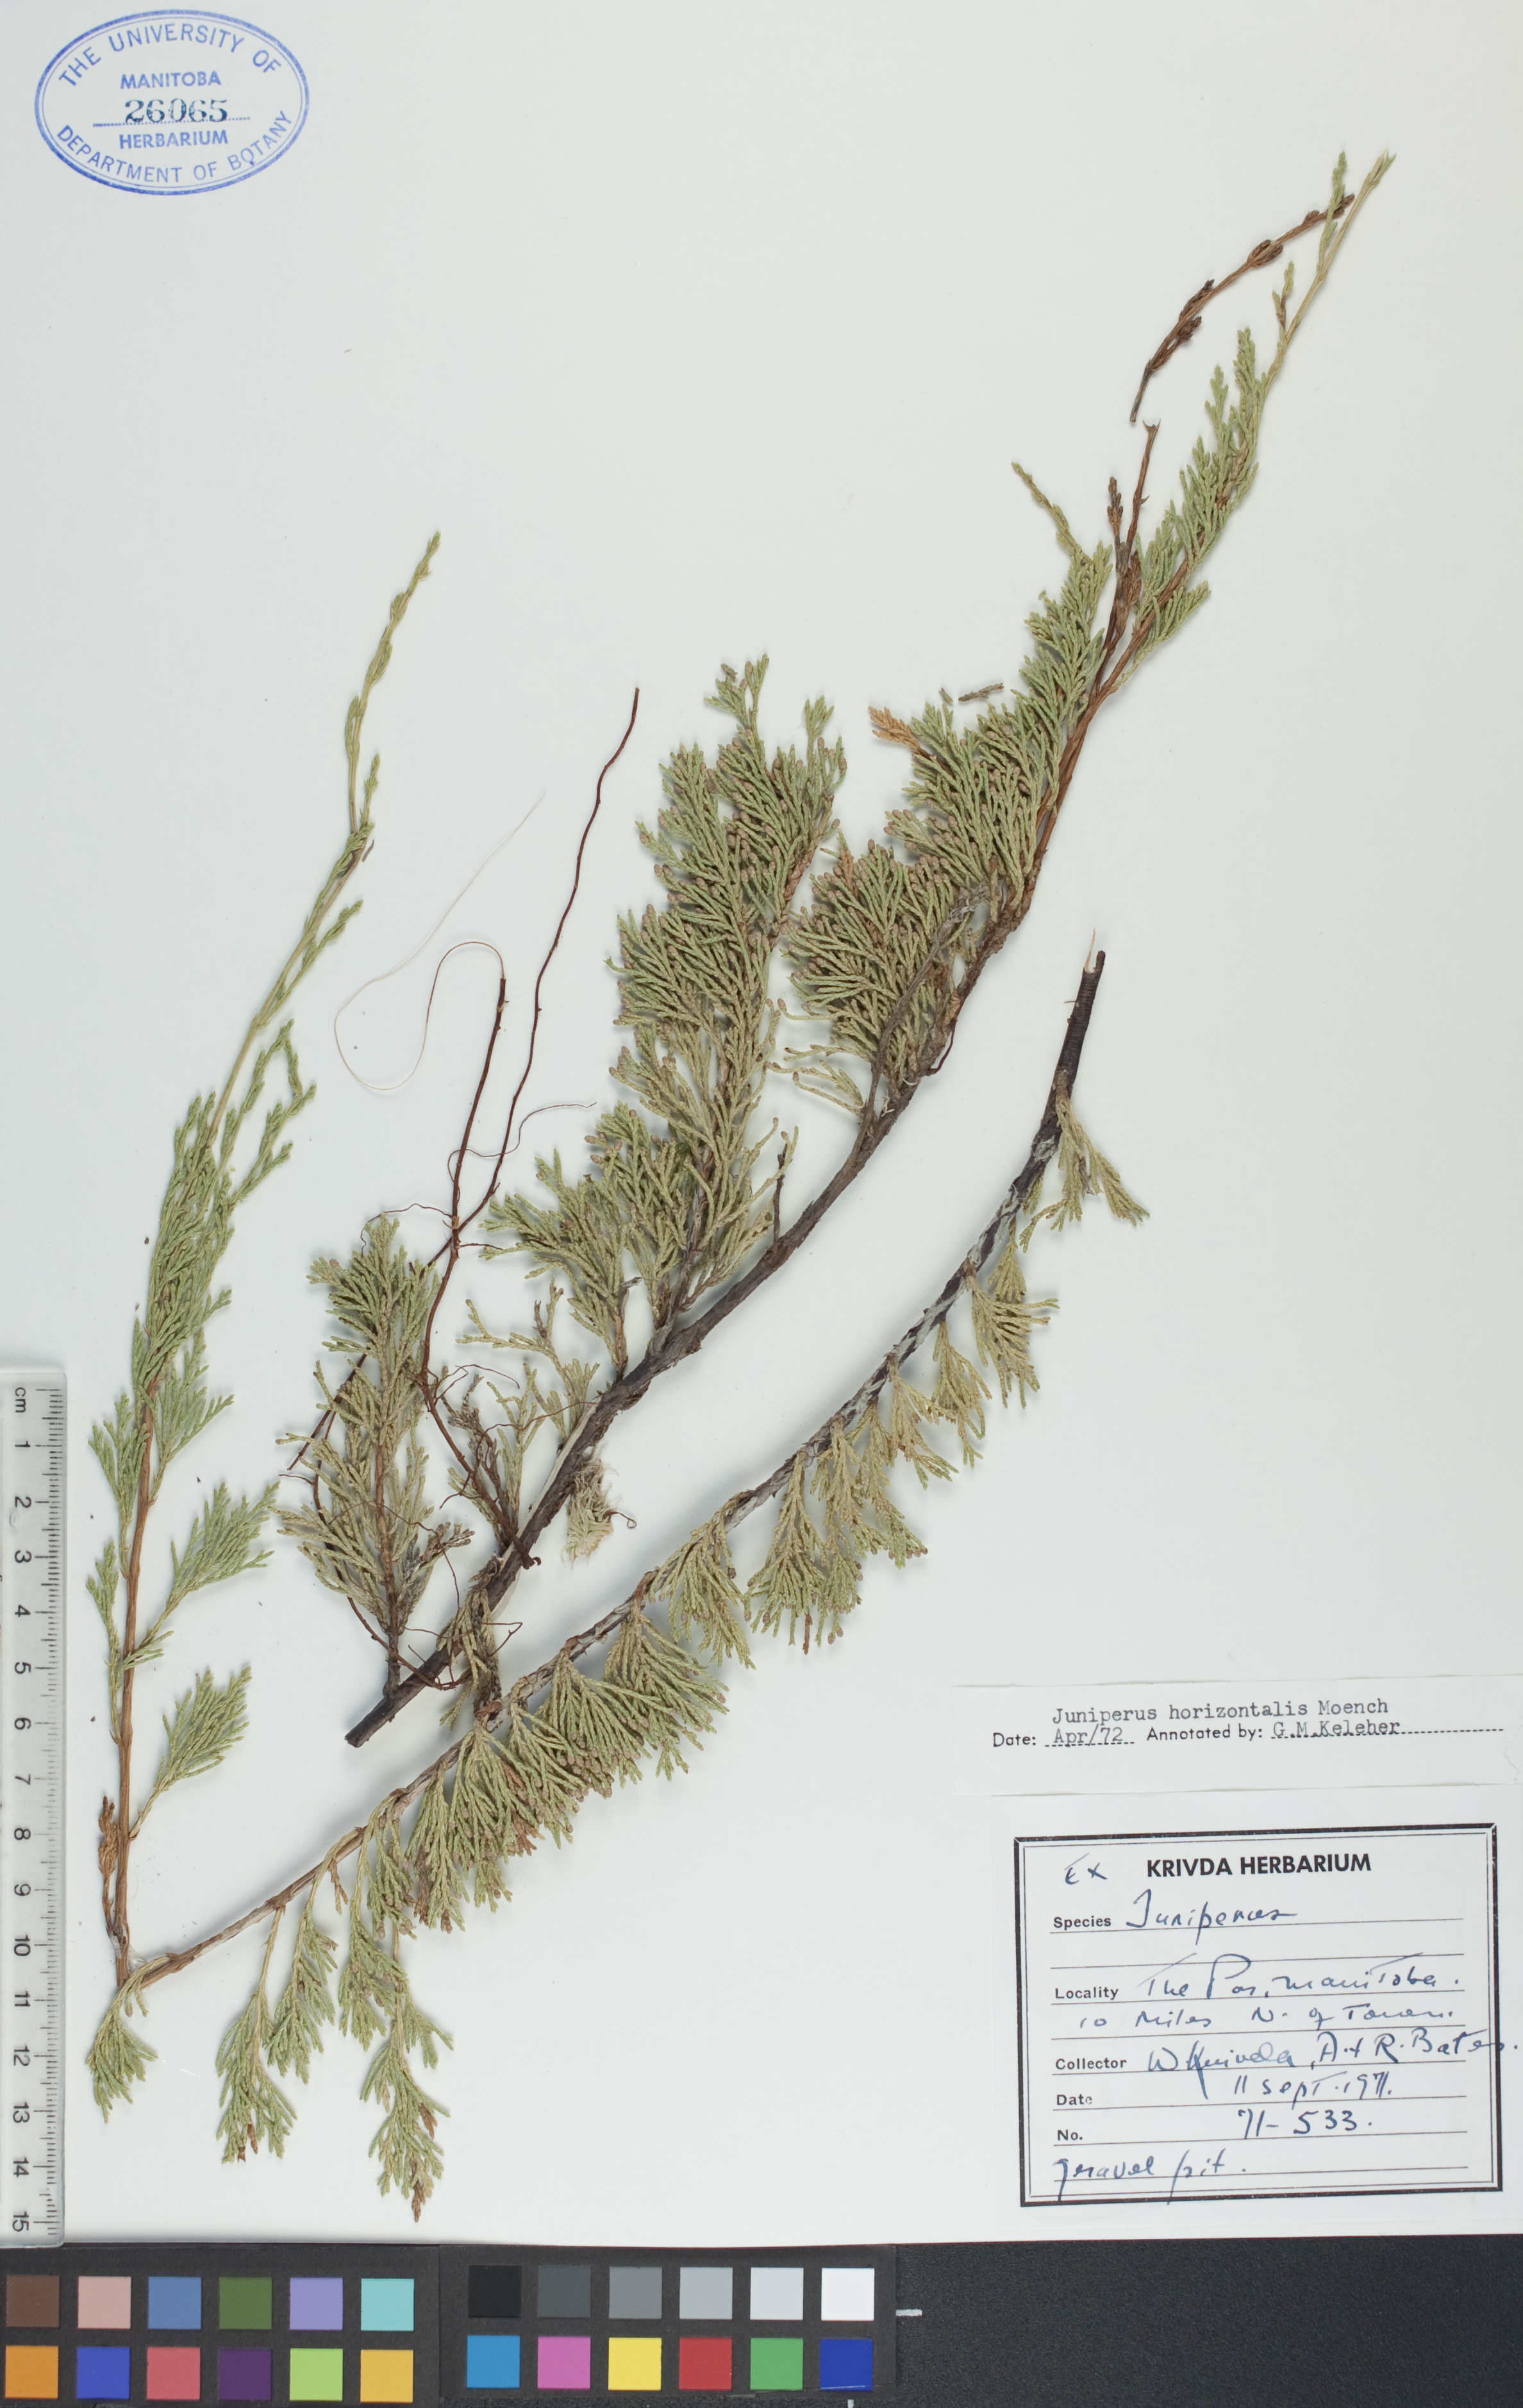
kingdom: Plantae
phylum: Tracheophyta
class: Pinopsida
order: Pinales
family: Cupressaceae
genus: Juniperus
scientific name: Juniperus horizontalis
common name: Creeping juniper
